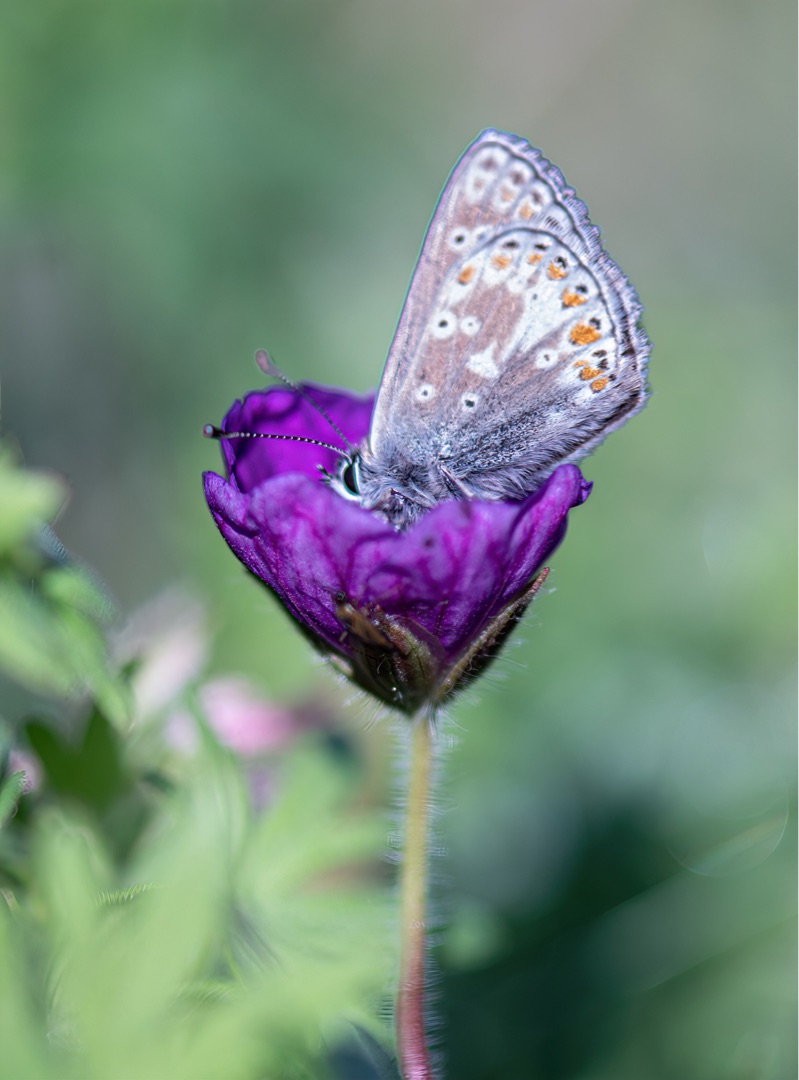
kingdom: Animalia
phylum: Arthropoda
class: Insecta
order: Lepidoptera
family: Lycaenidae
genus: Polyommatus
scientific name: Polyommatus icarus
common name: Almindelig blåfugl
